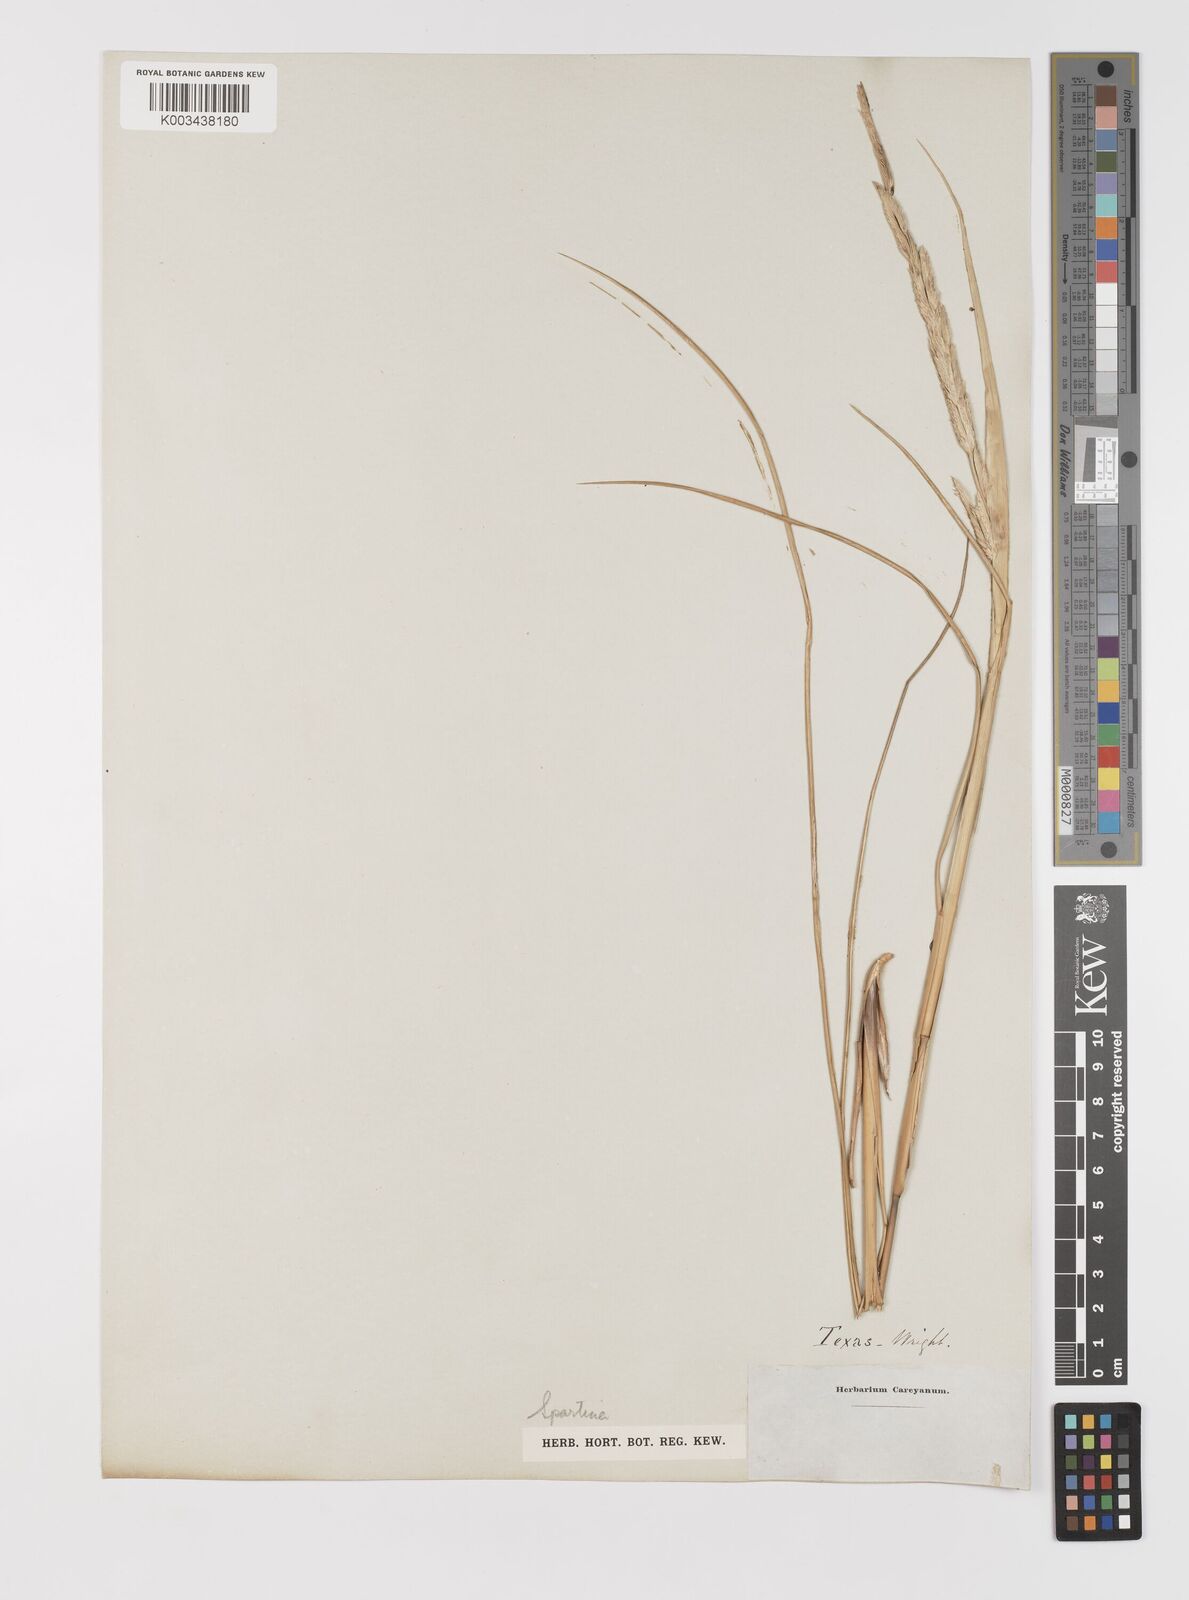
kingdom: Animalia
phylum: Mollusca
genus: Spartina
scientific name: Spartina
